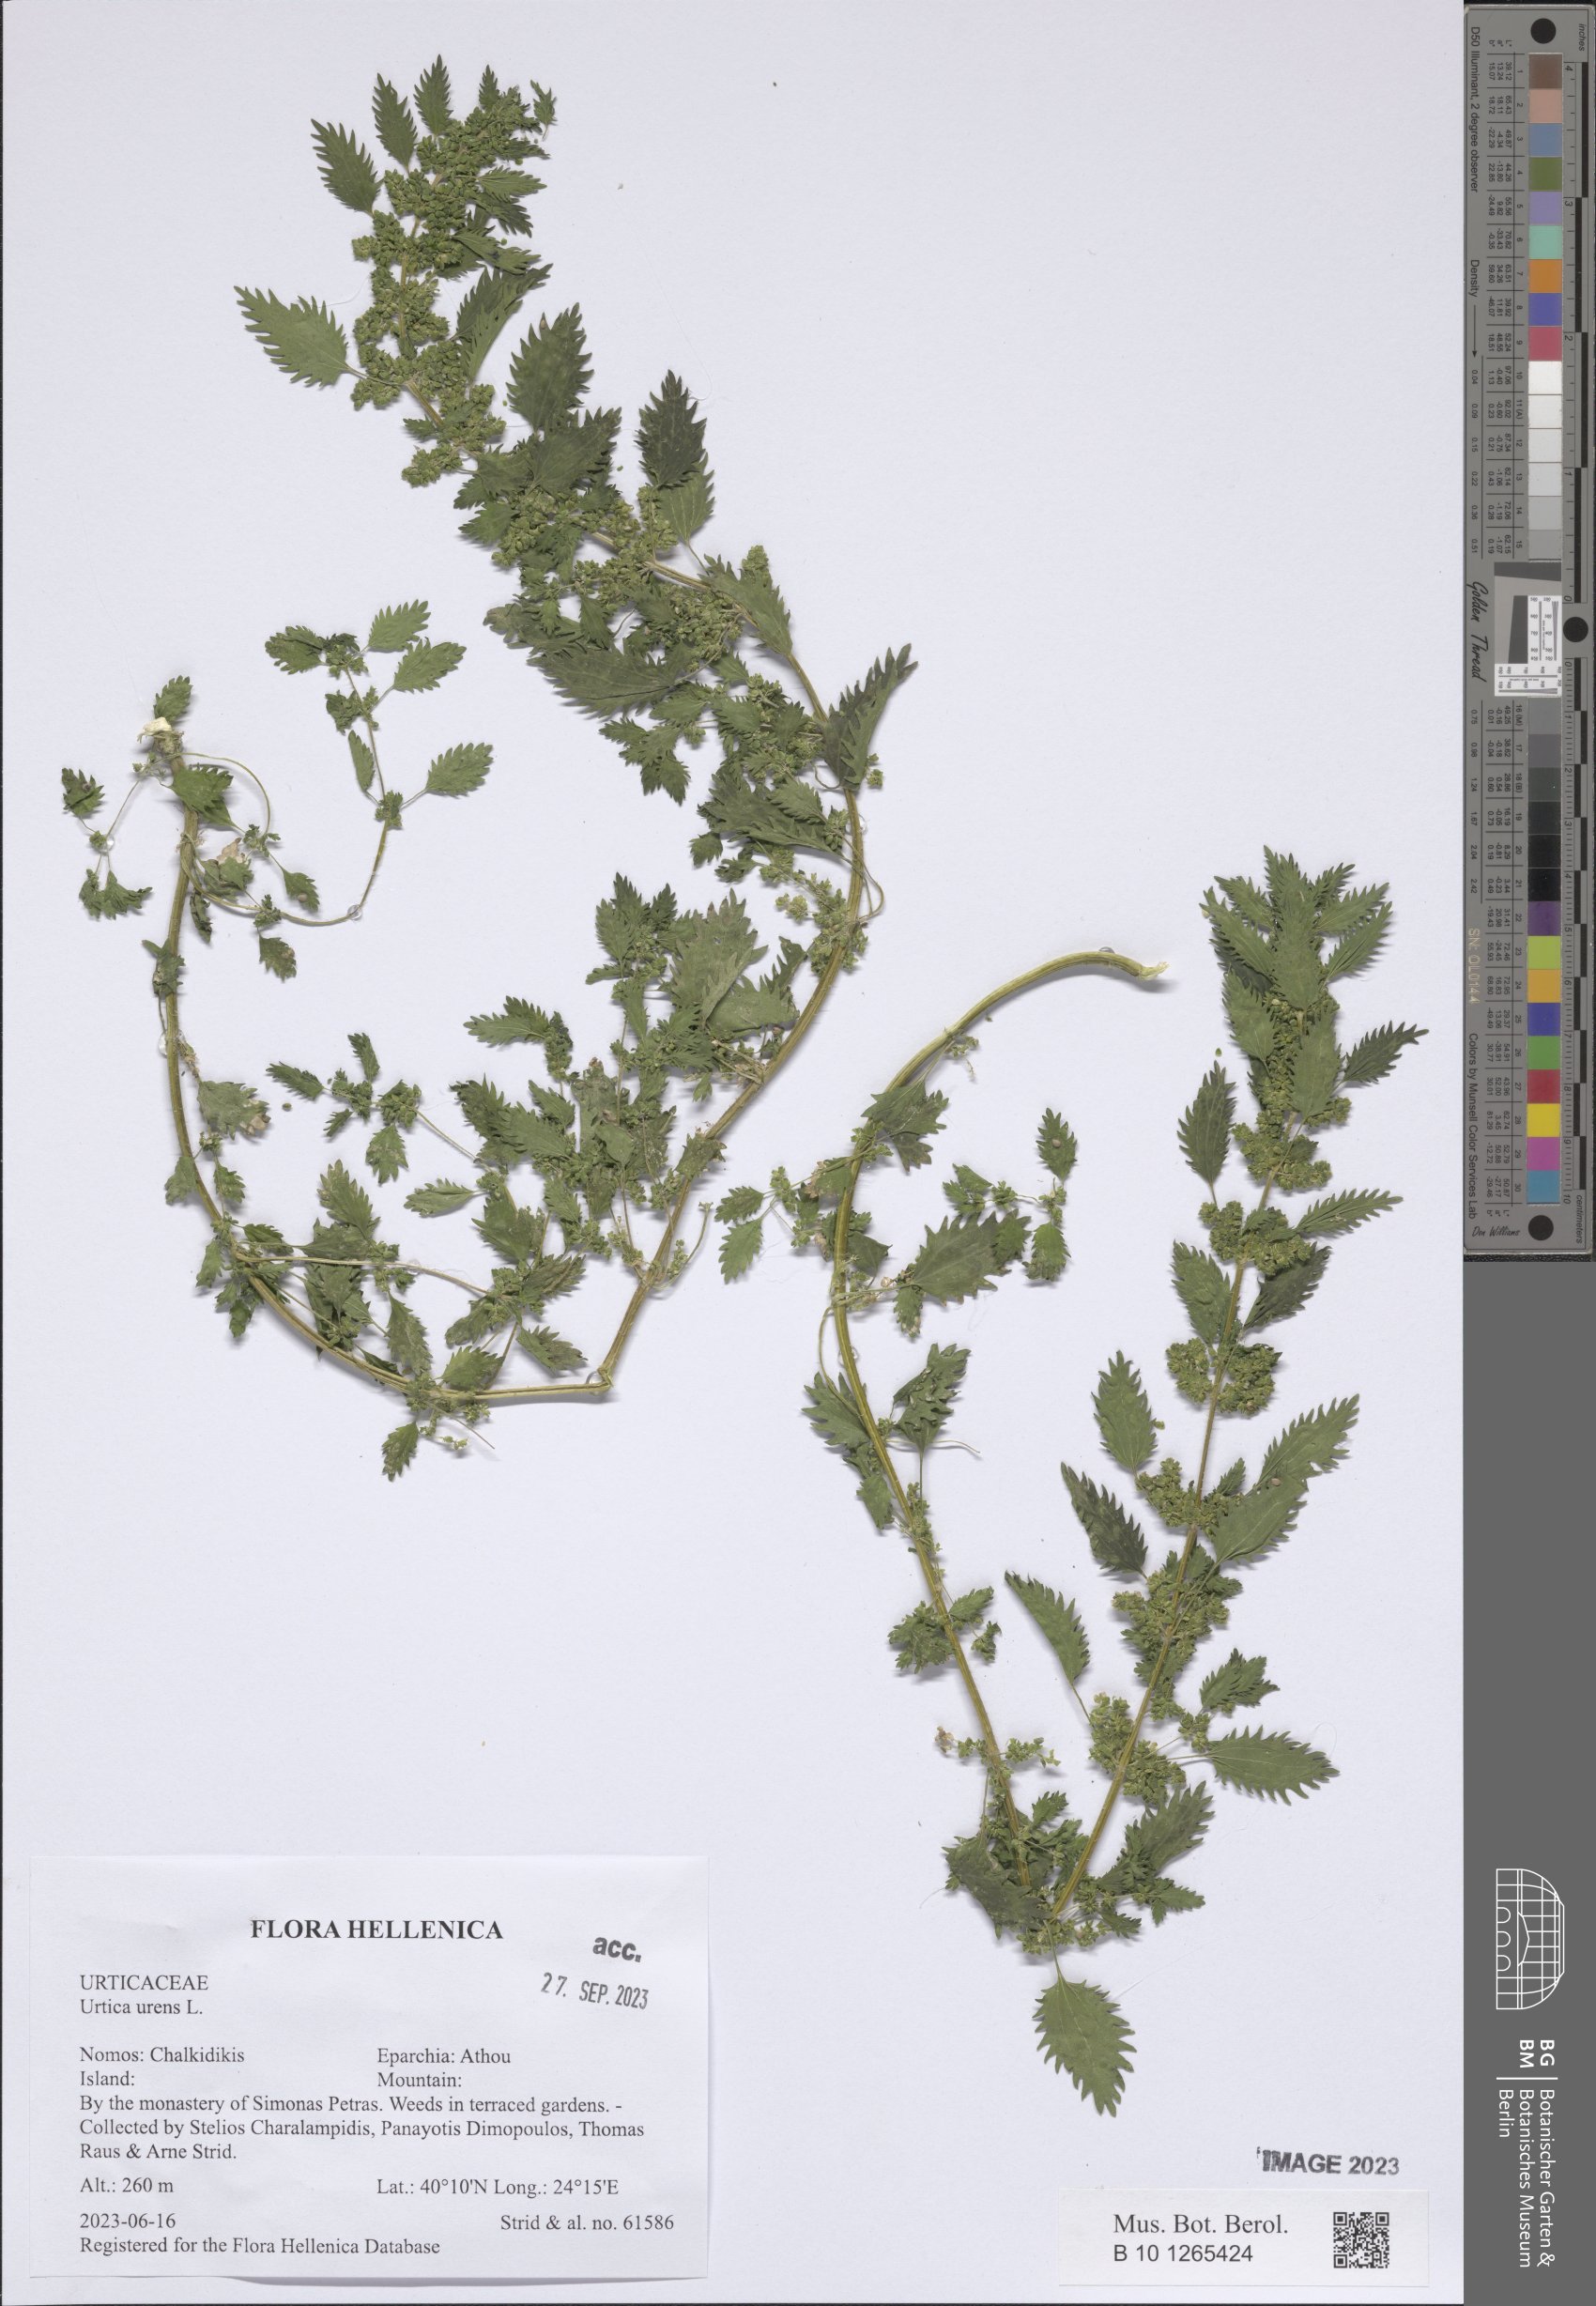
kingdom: Plantae
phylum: Tracheophyta
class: Magnoliopsida
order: Rosales
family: Urticaceae
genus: Urtica
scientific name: Urtica urens
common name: Dwarf nettle
